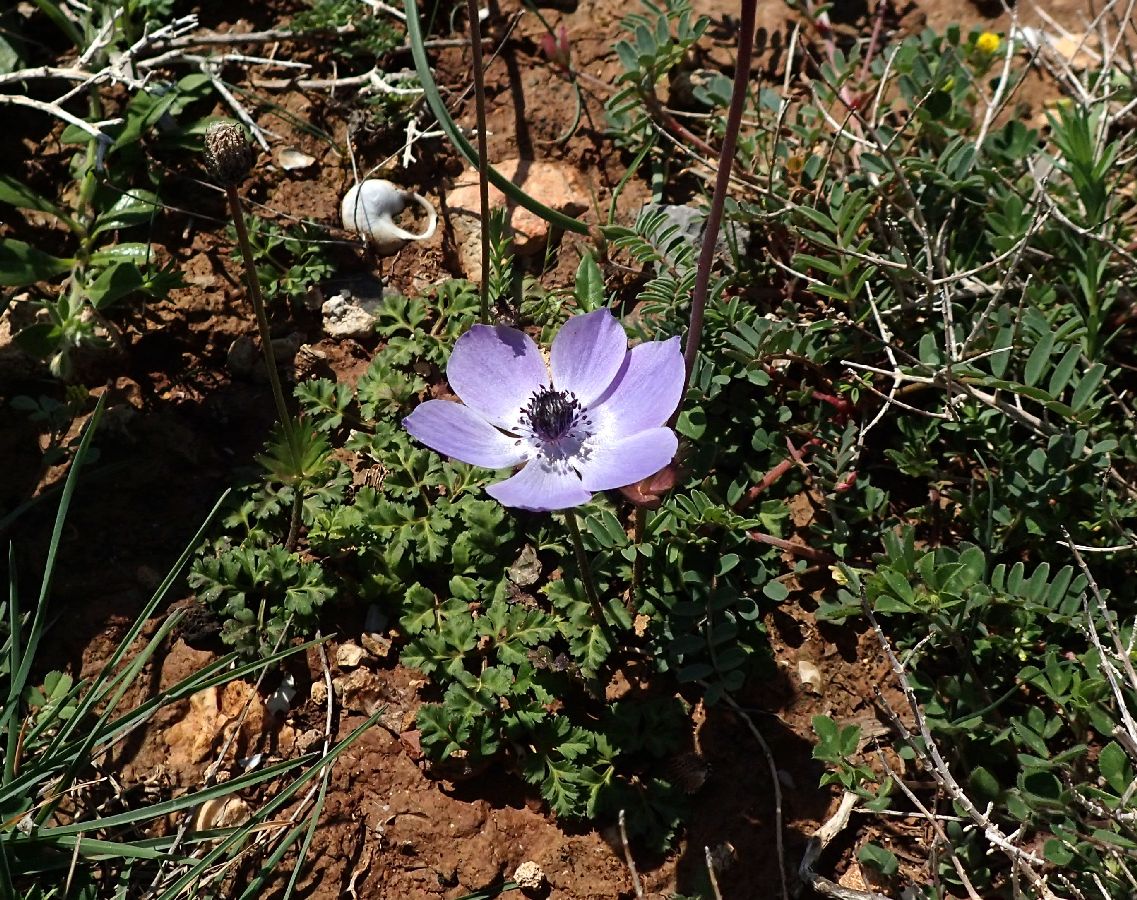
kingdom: Plantae
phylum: Tracheophyta
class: Magnoliopsida
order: Ranunculales
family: Ranunculaceae
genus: Anemone
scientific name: Anemone coronaria
